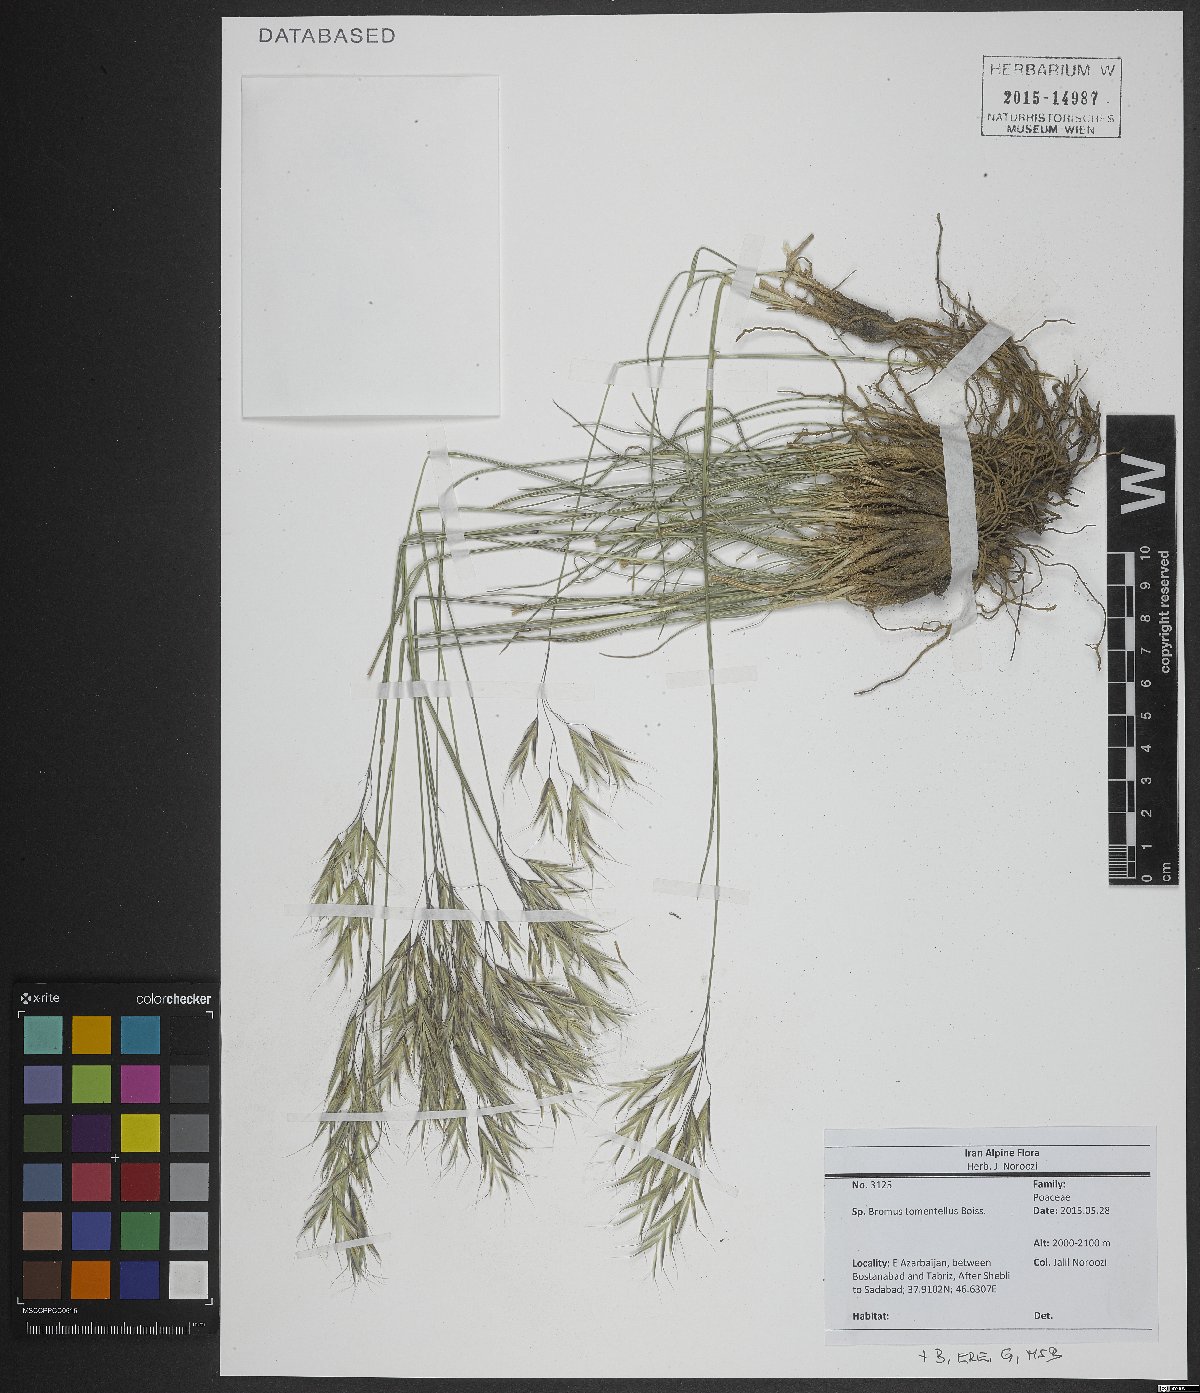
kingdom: Plantae
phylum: Tracheophyta
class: Liliopsida
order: Poales
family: Poaceae
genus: Bromus
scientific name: Bromus tomentellus
